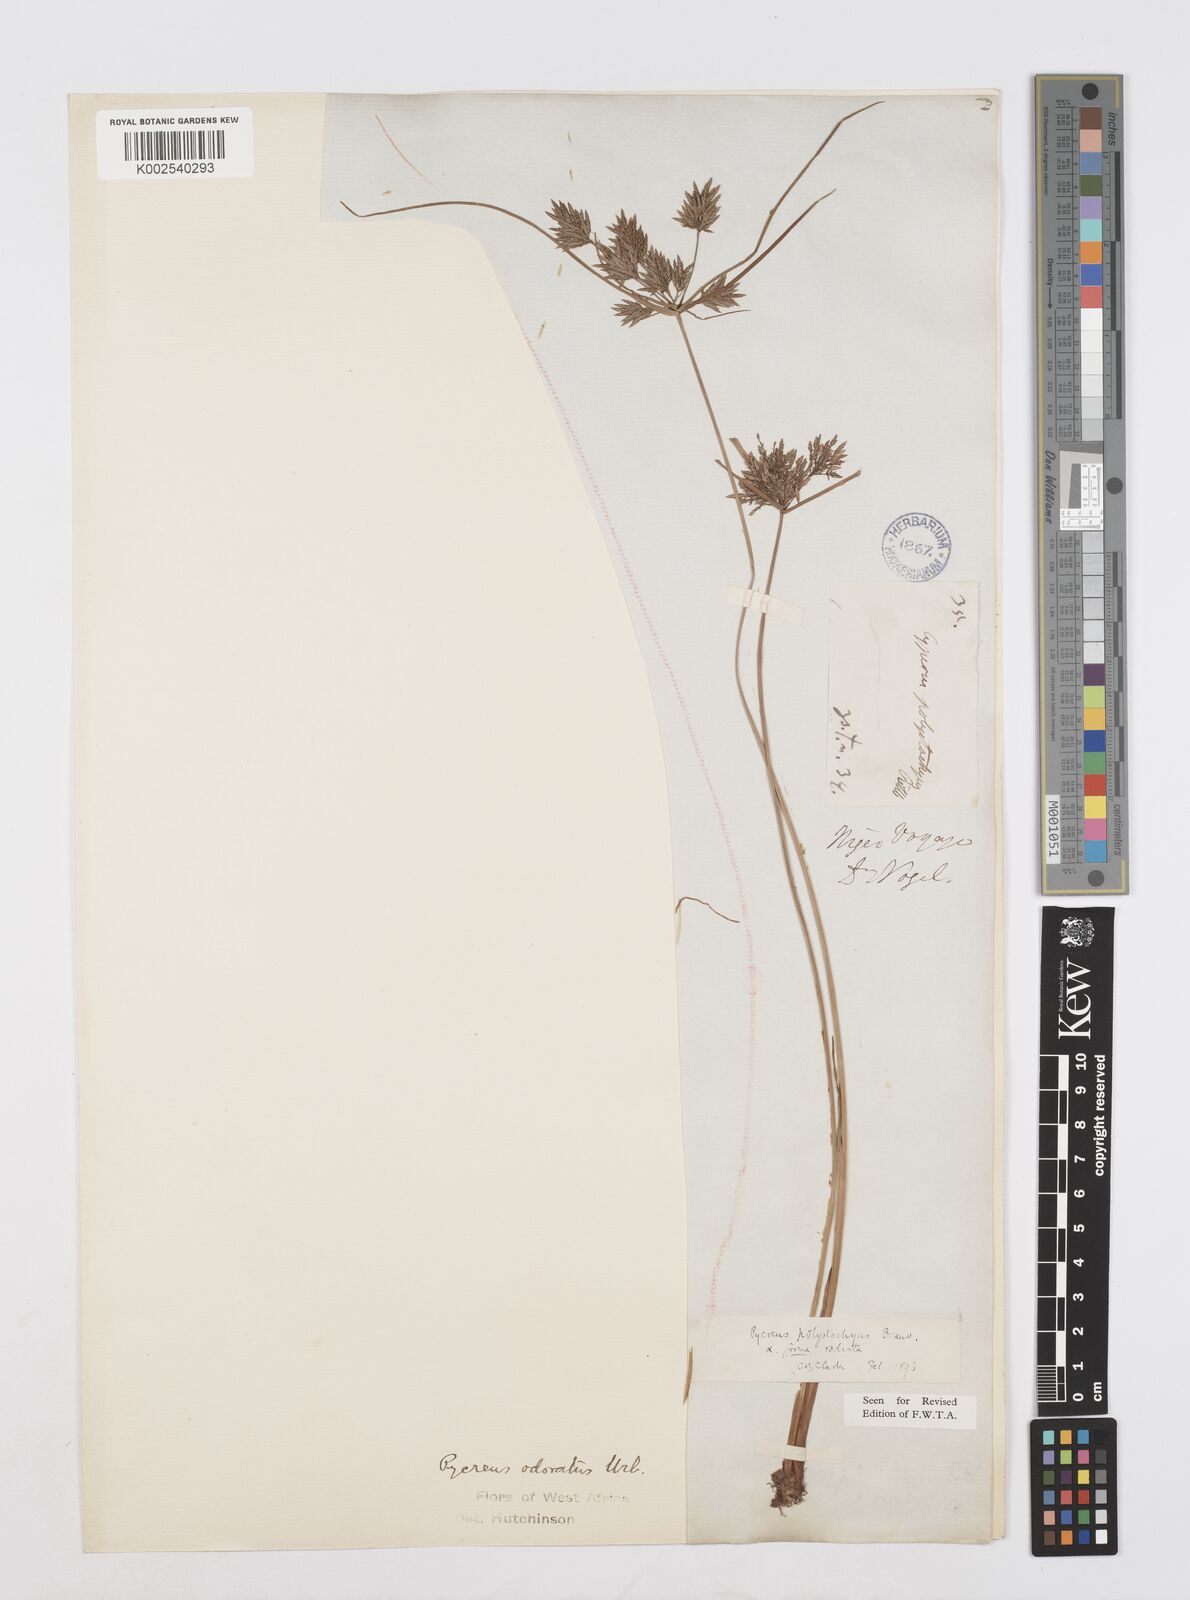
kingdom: Plantae
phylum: Tracheophyta
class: Liliopsida
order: Poales
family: Cyperaceae
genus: Cyperus
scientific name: Cyperus polystachyos
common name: Bunchy flat sedge
